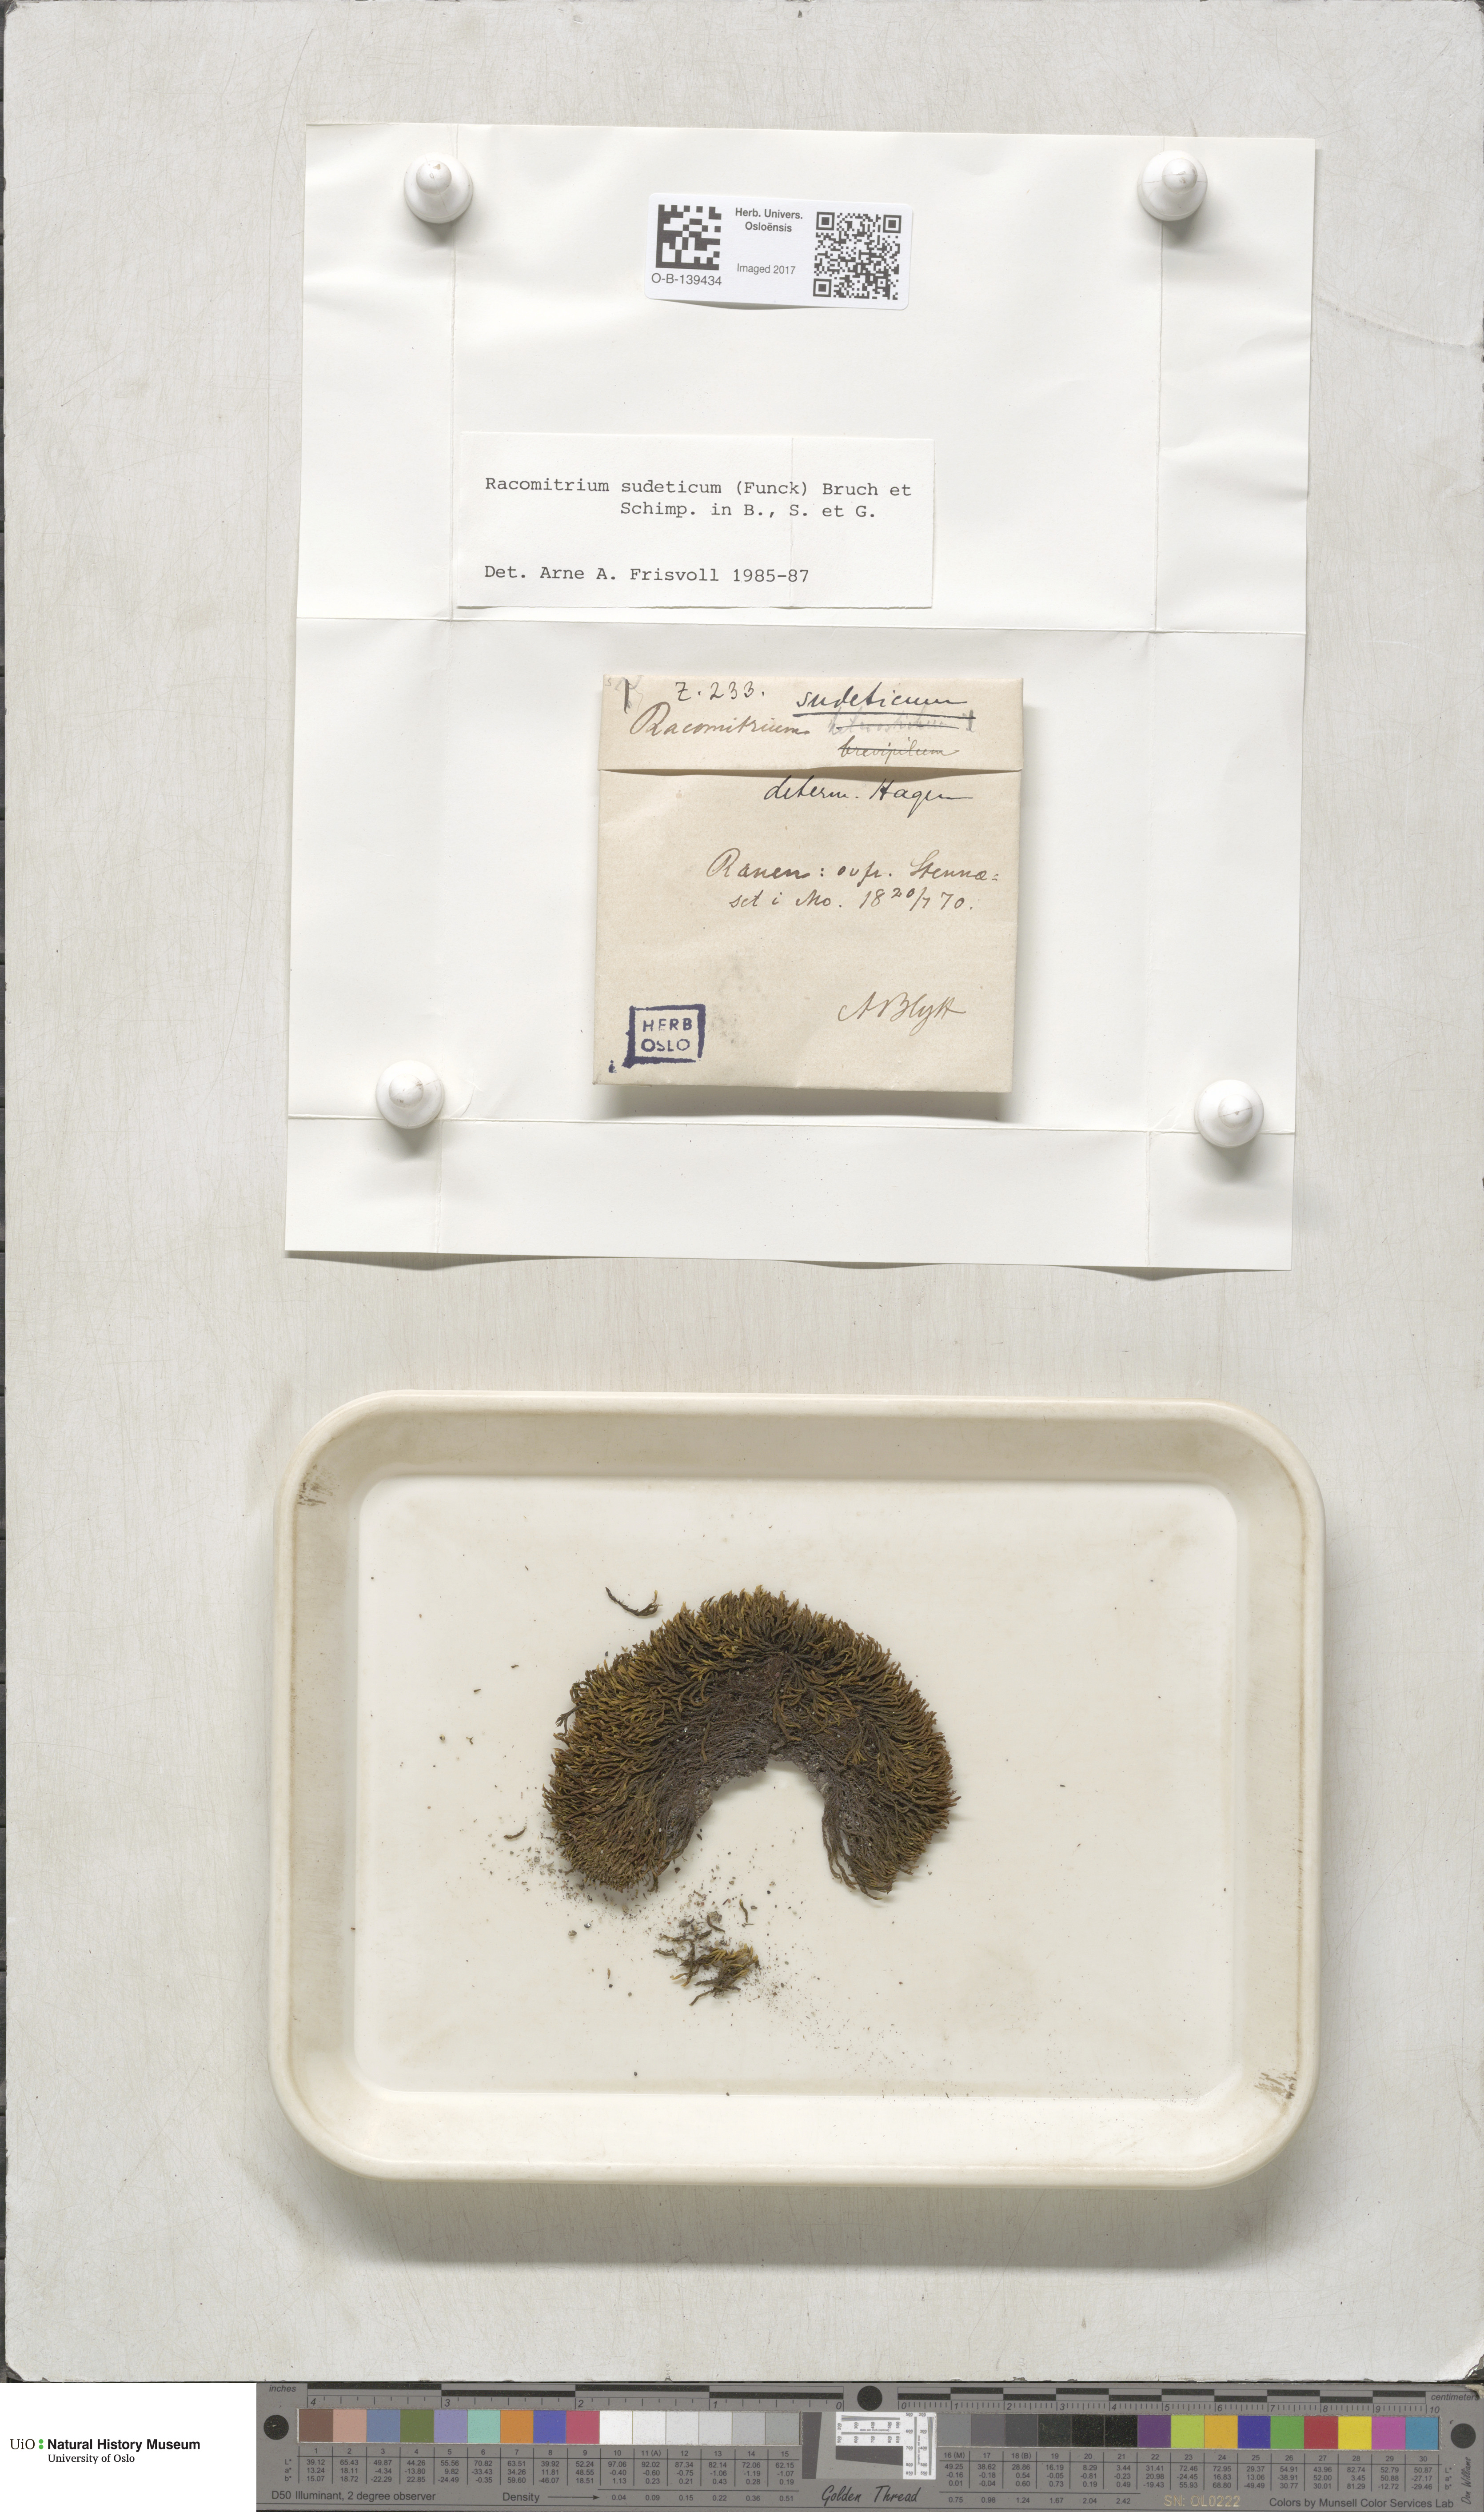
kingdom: Plantae
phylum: Bryophyta
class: Bryopsida
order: Grimmiales
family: Grimmiaceae
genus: Bucklandiella
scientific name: Bucklandiella sudetica
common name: Slender fringe-moss
